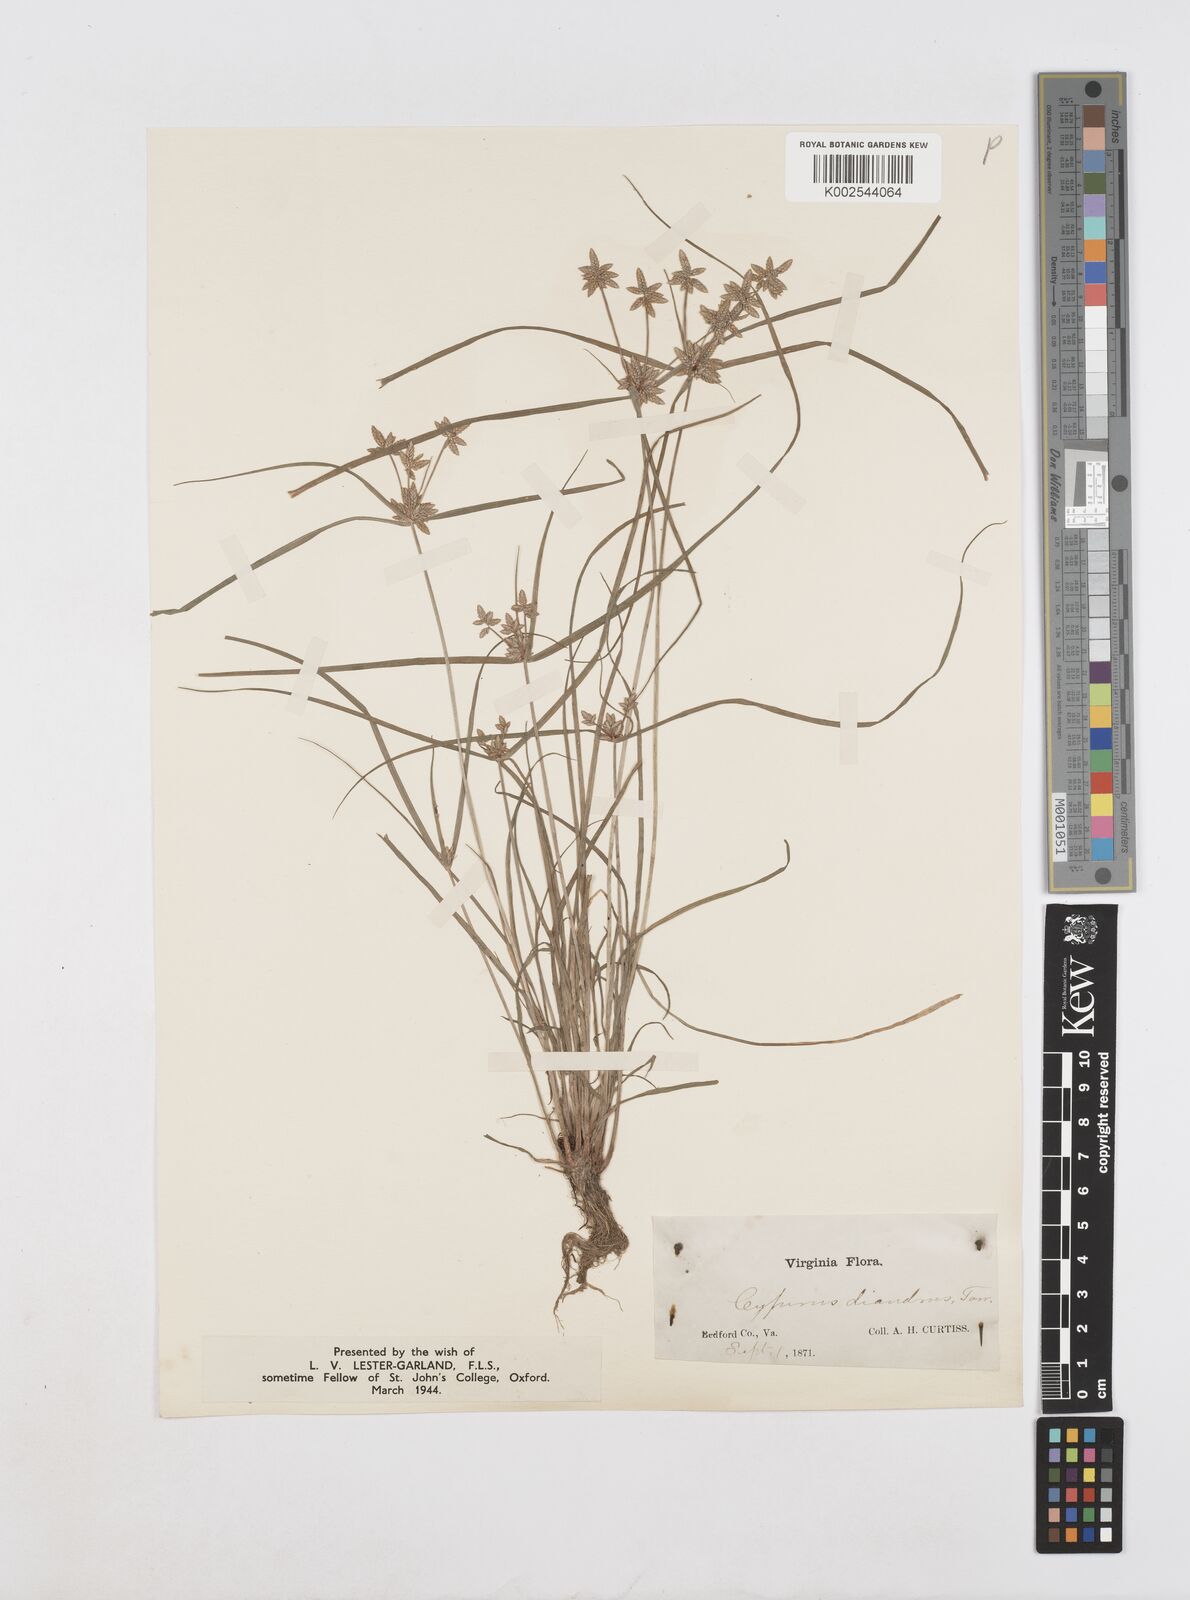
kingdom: Plantae
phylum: Tracheophyta
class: Liliopsida
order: Poales
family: Cyperaceae
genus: Cyperus
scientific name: Cyperus diandrus
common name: Low cyperus
